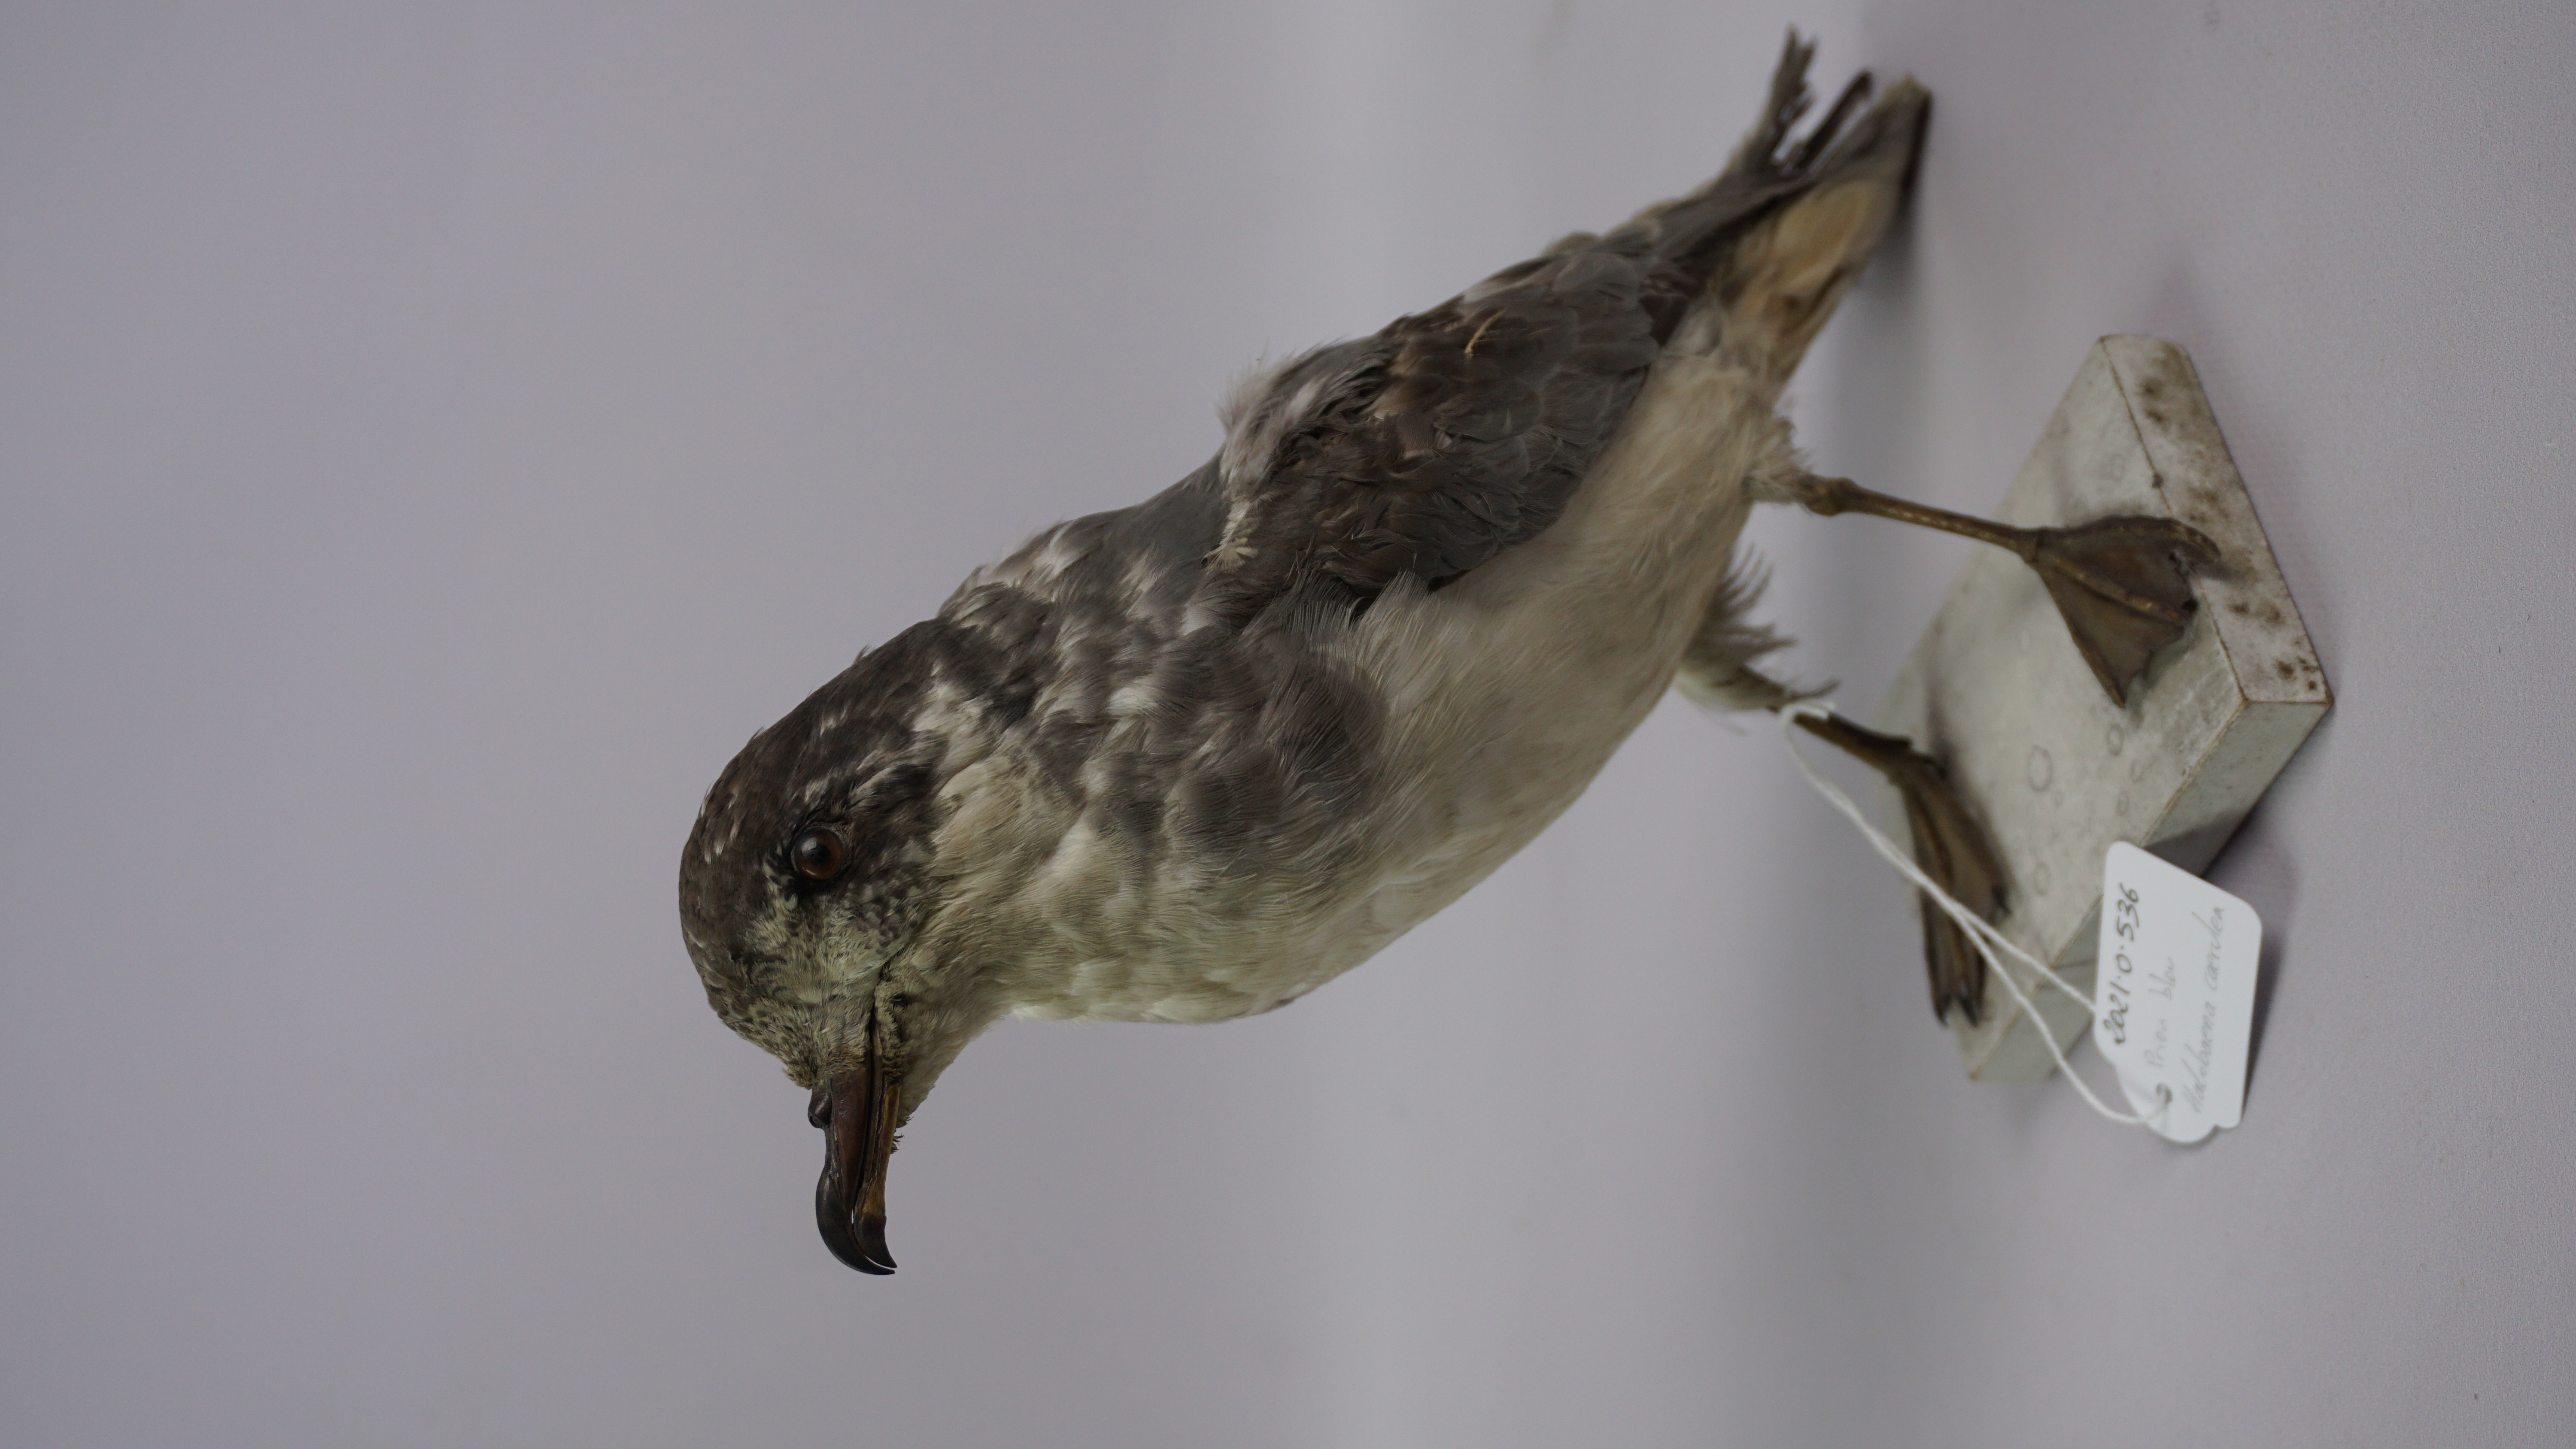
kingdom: Animalia
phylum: Chordata
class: Aves
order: Procellariiformes
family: Procellariidae
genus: Halobaena
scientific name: Halobaena caerulea
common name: Blue petrel
